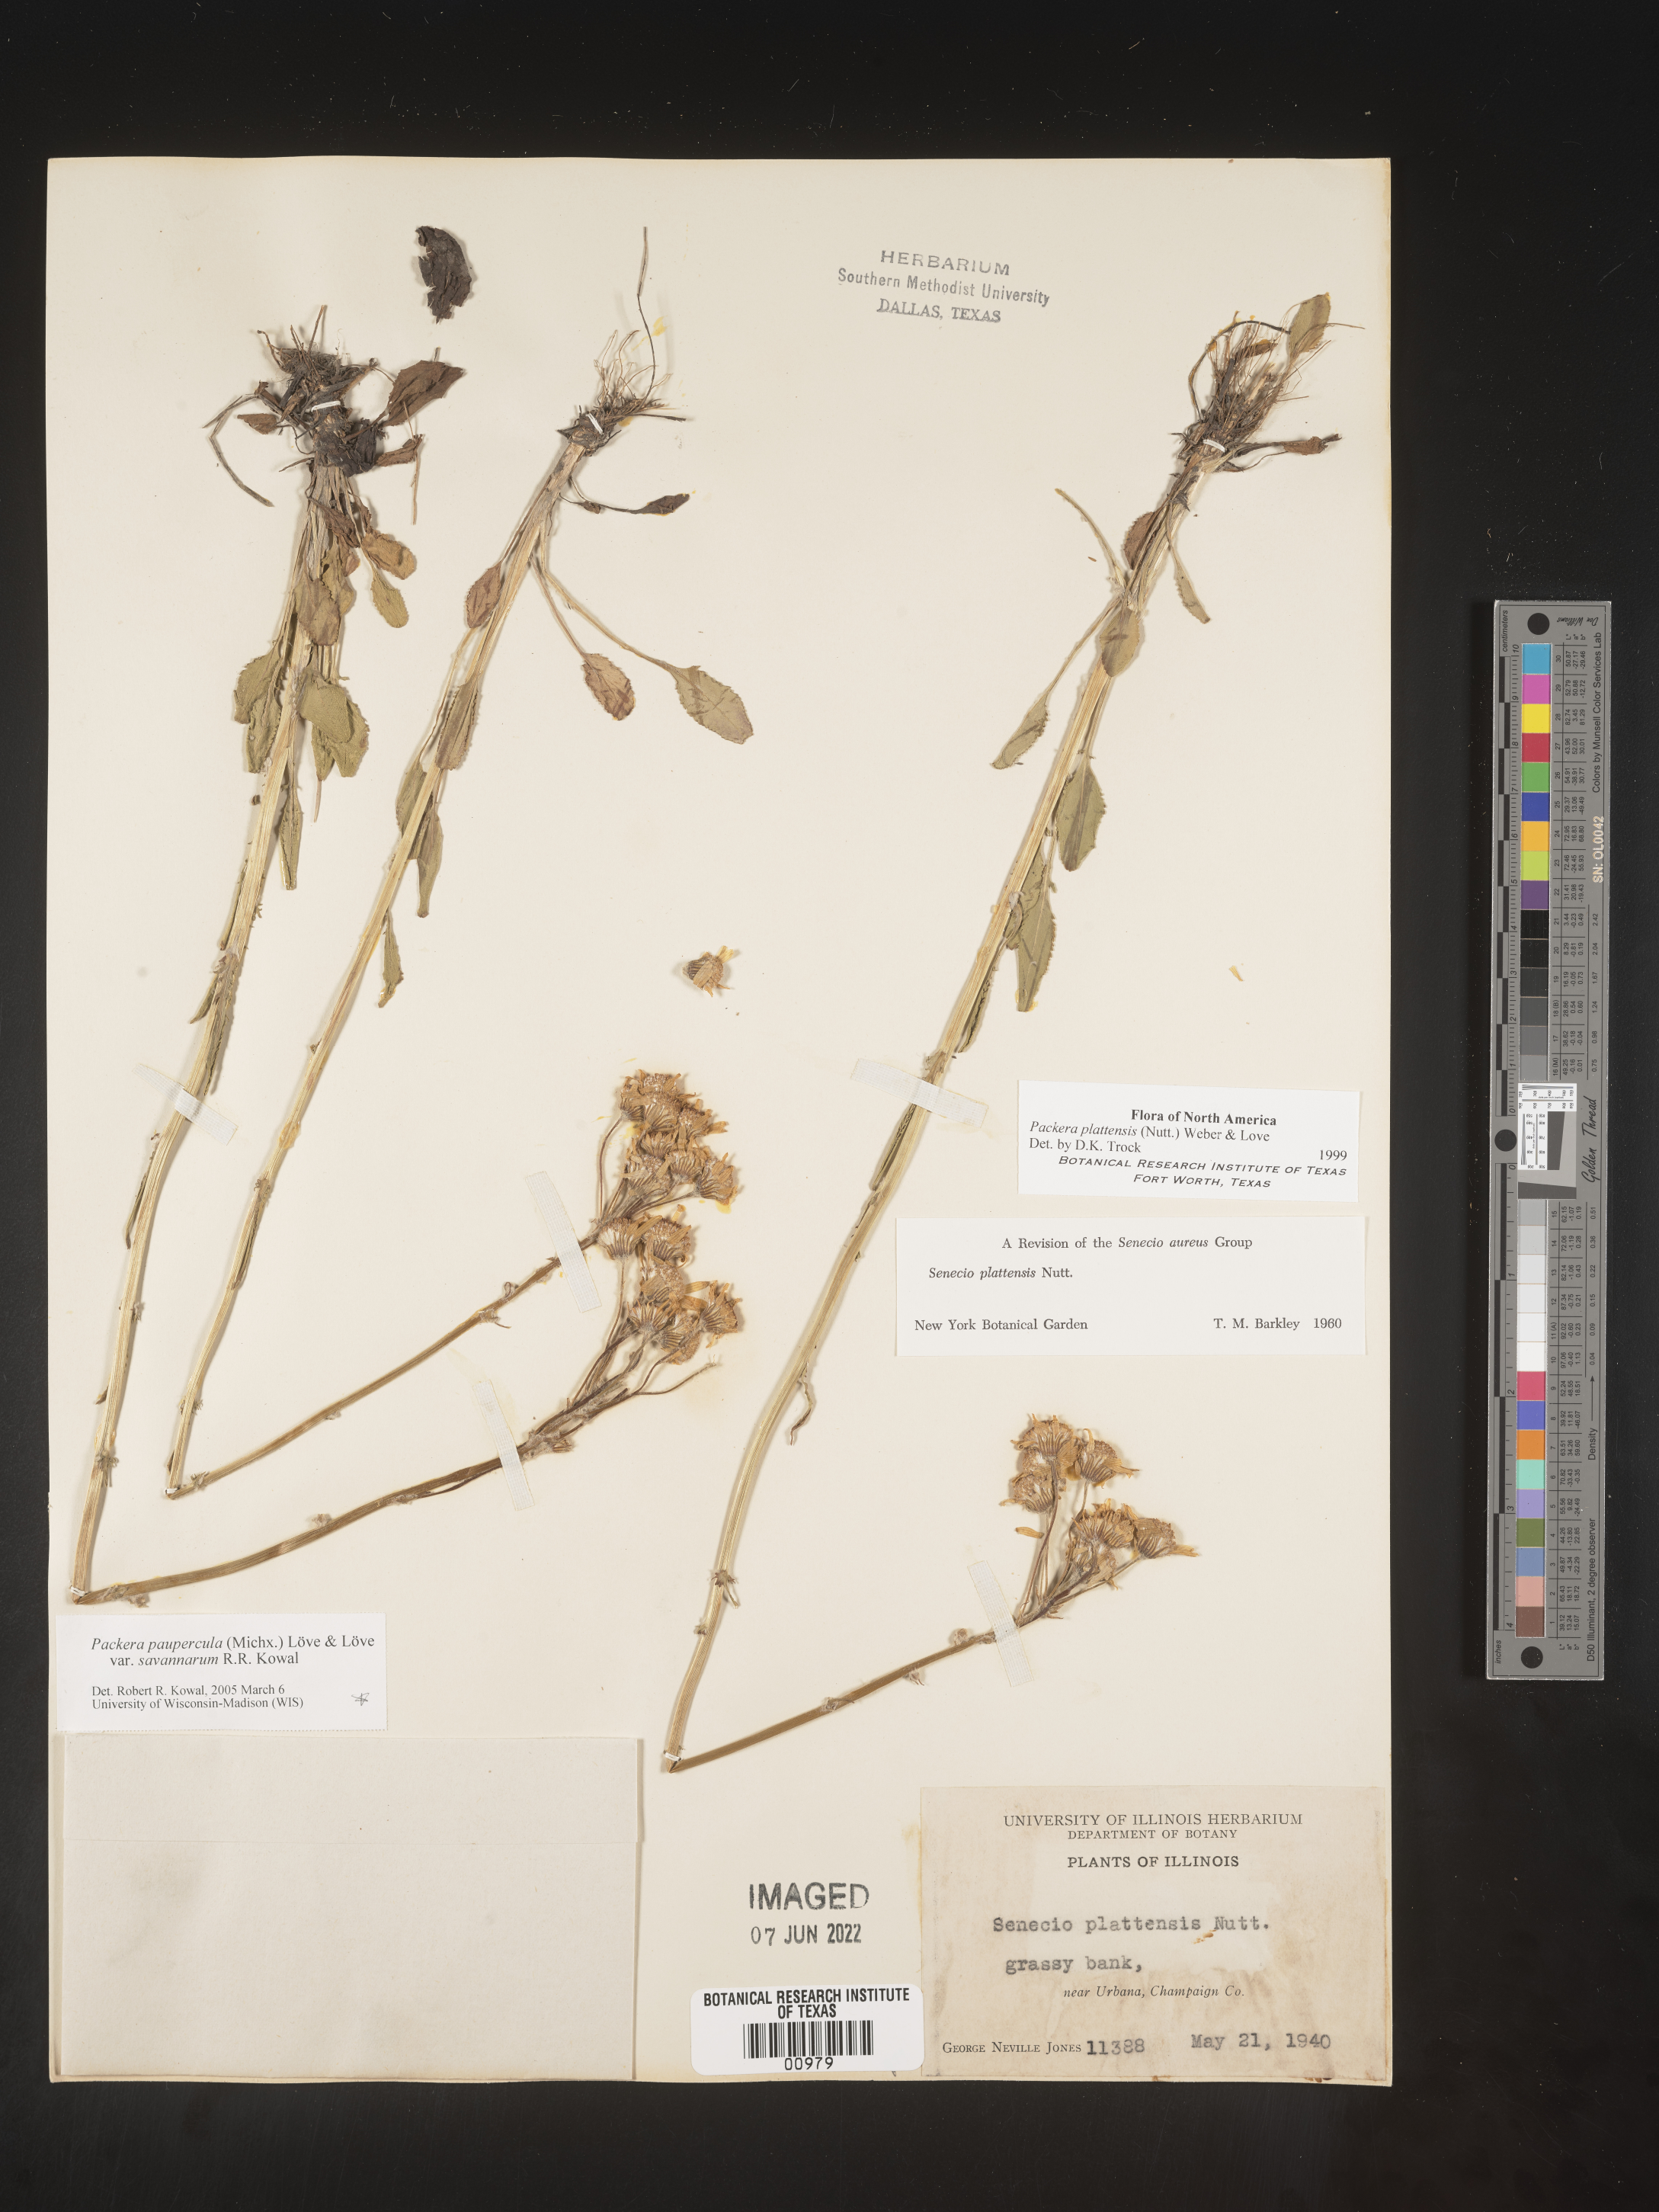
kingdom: Plantae
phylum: Tracheophyta
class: Magnoliopsida
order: Asterales
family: Asteraceae
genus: Packera
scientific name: Packera paupercula
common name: Balsam groundsel
